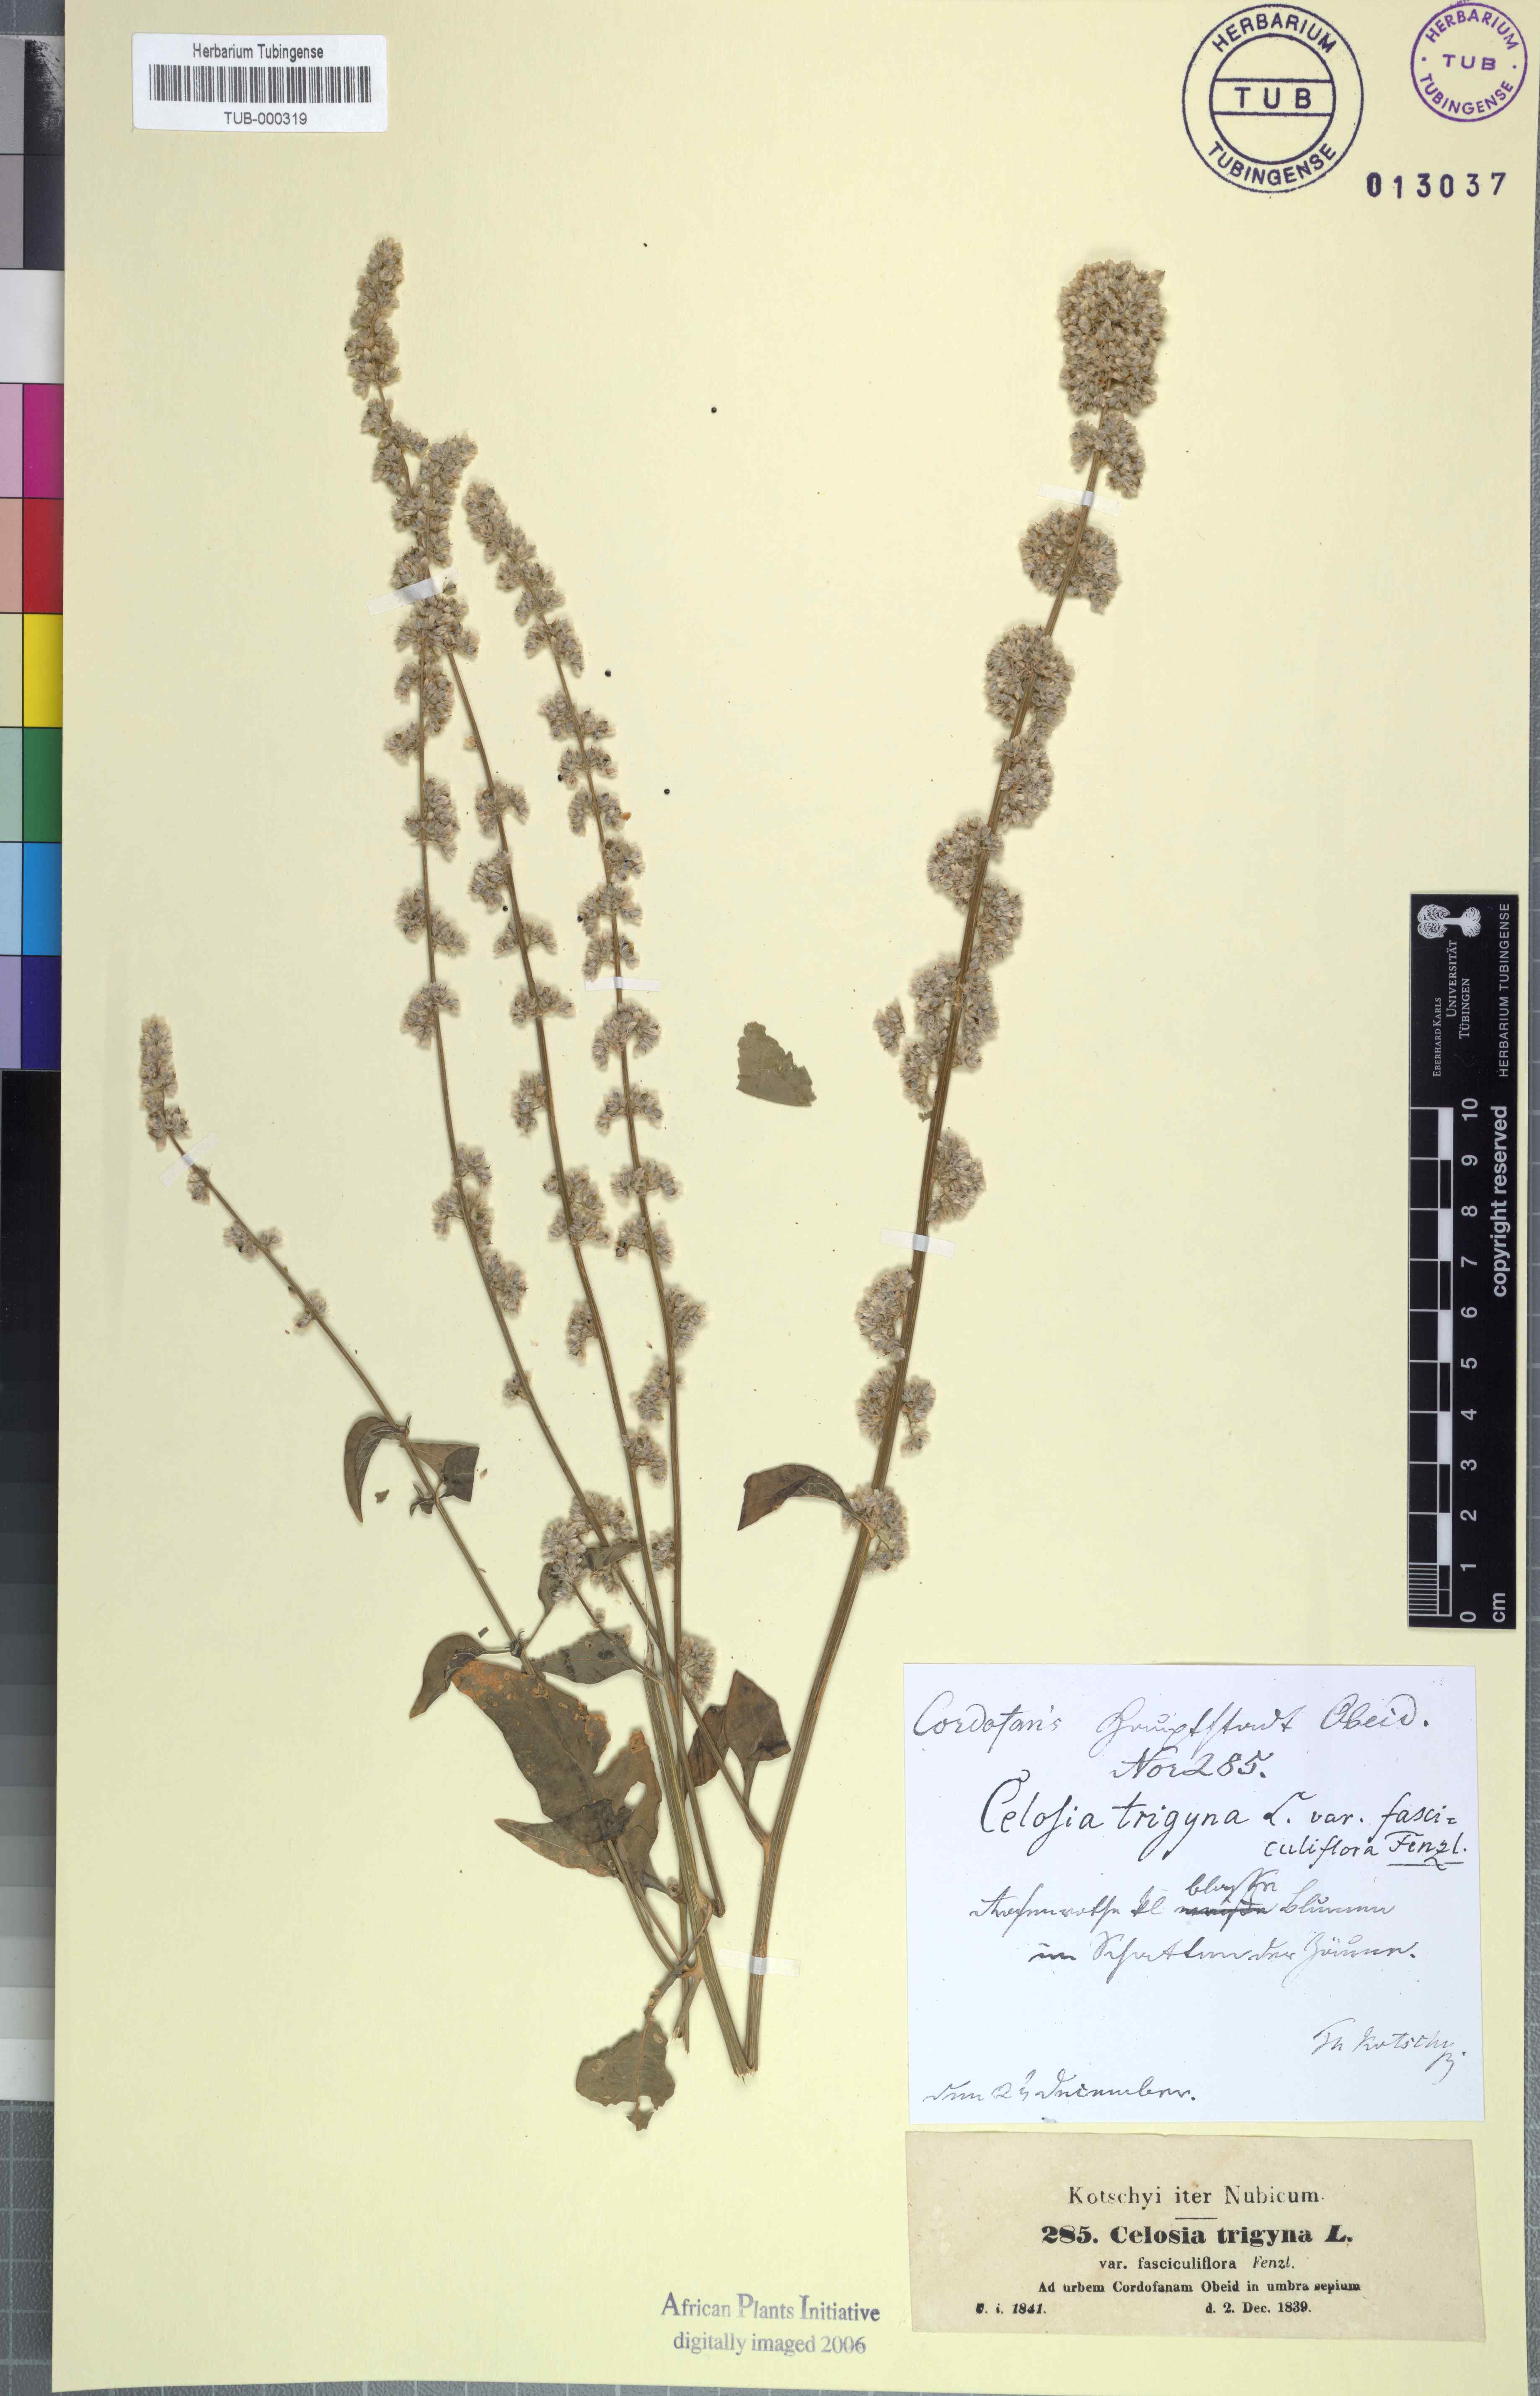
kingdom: Plantae
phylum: Tracheophyta
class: Magnoliopsida
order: Caryophyllales
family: Amaranthaceae
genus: Celosia
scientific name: Celosia trigyna
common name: Woolflower
